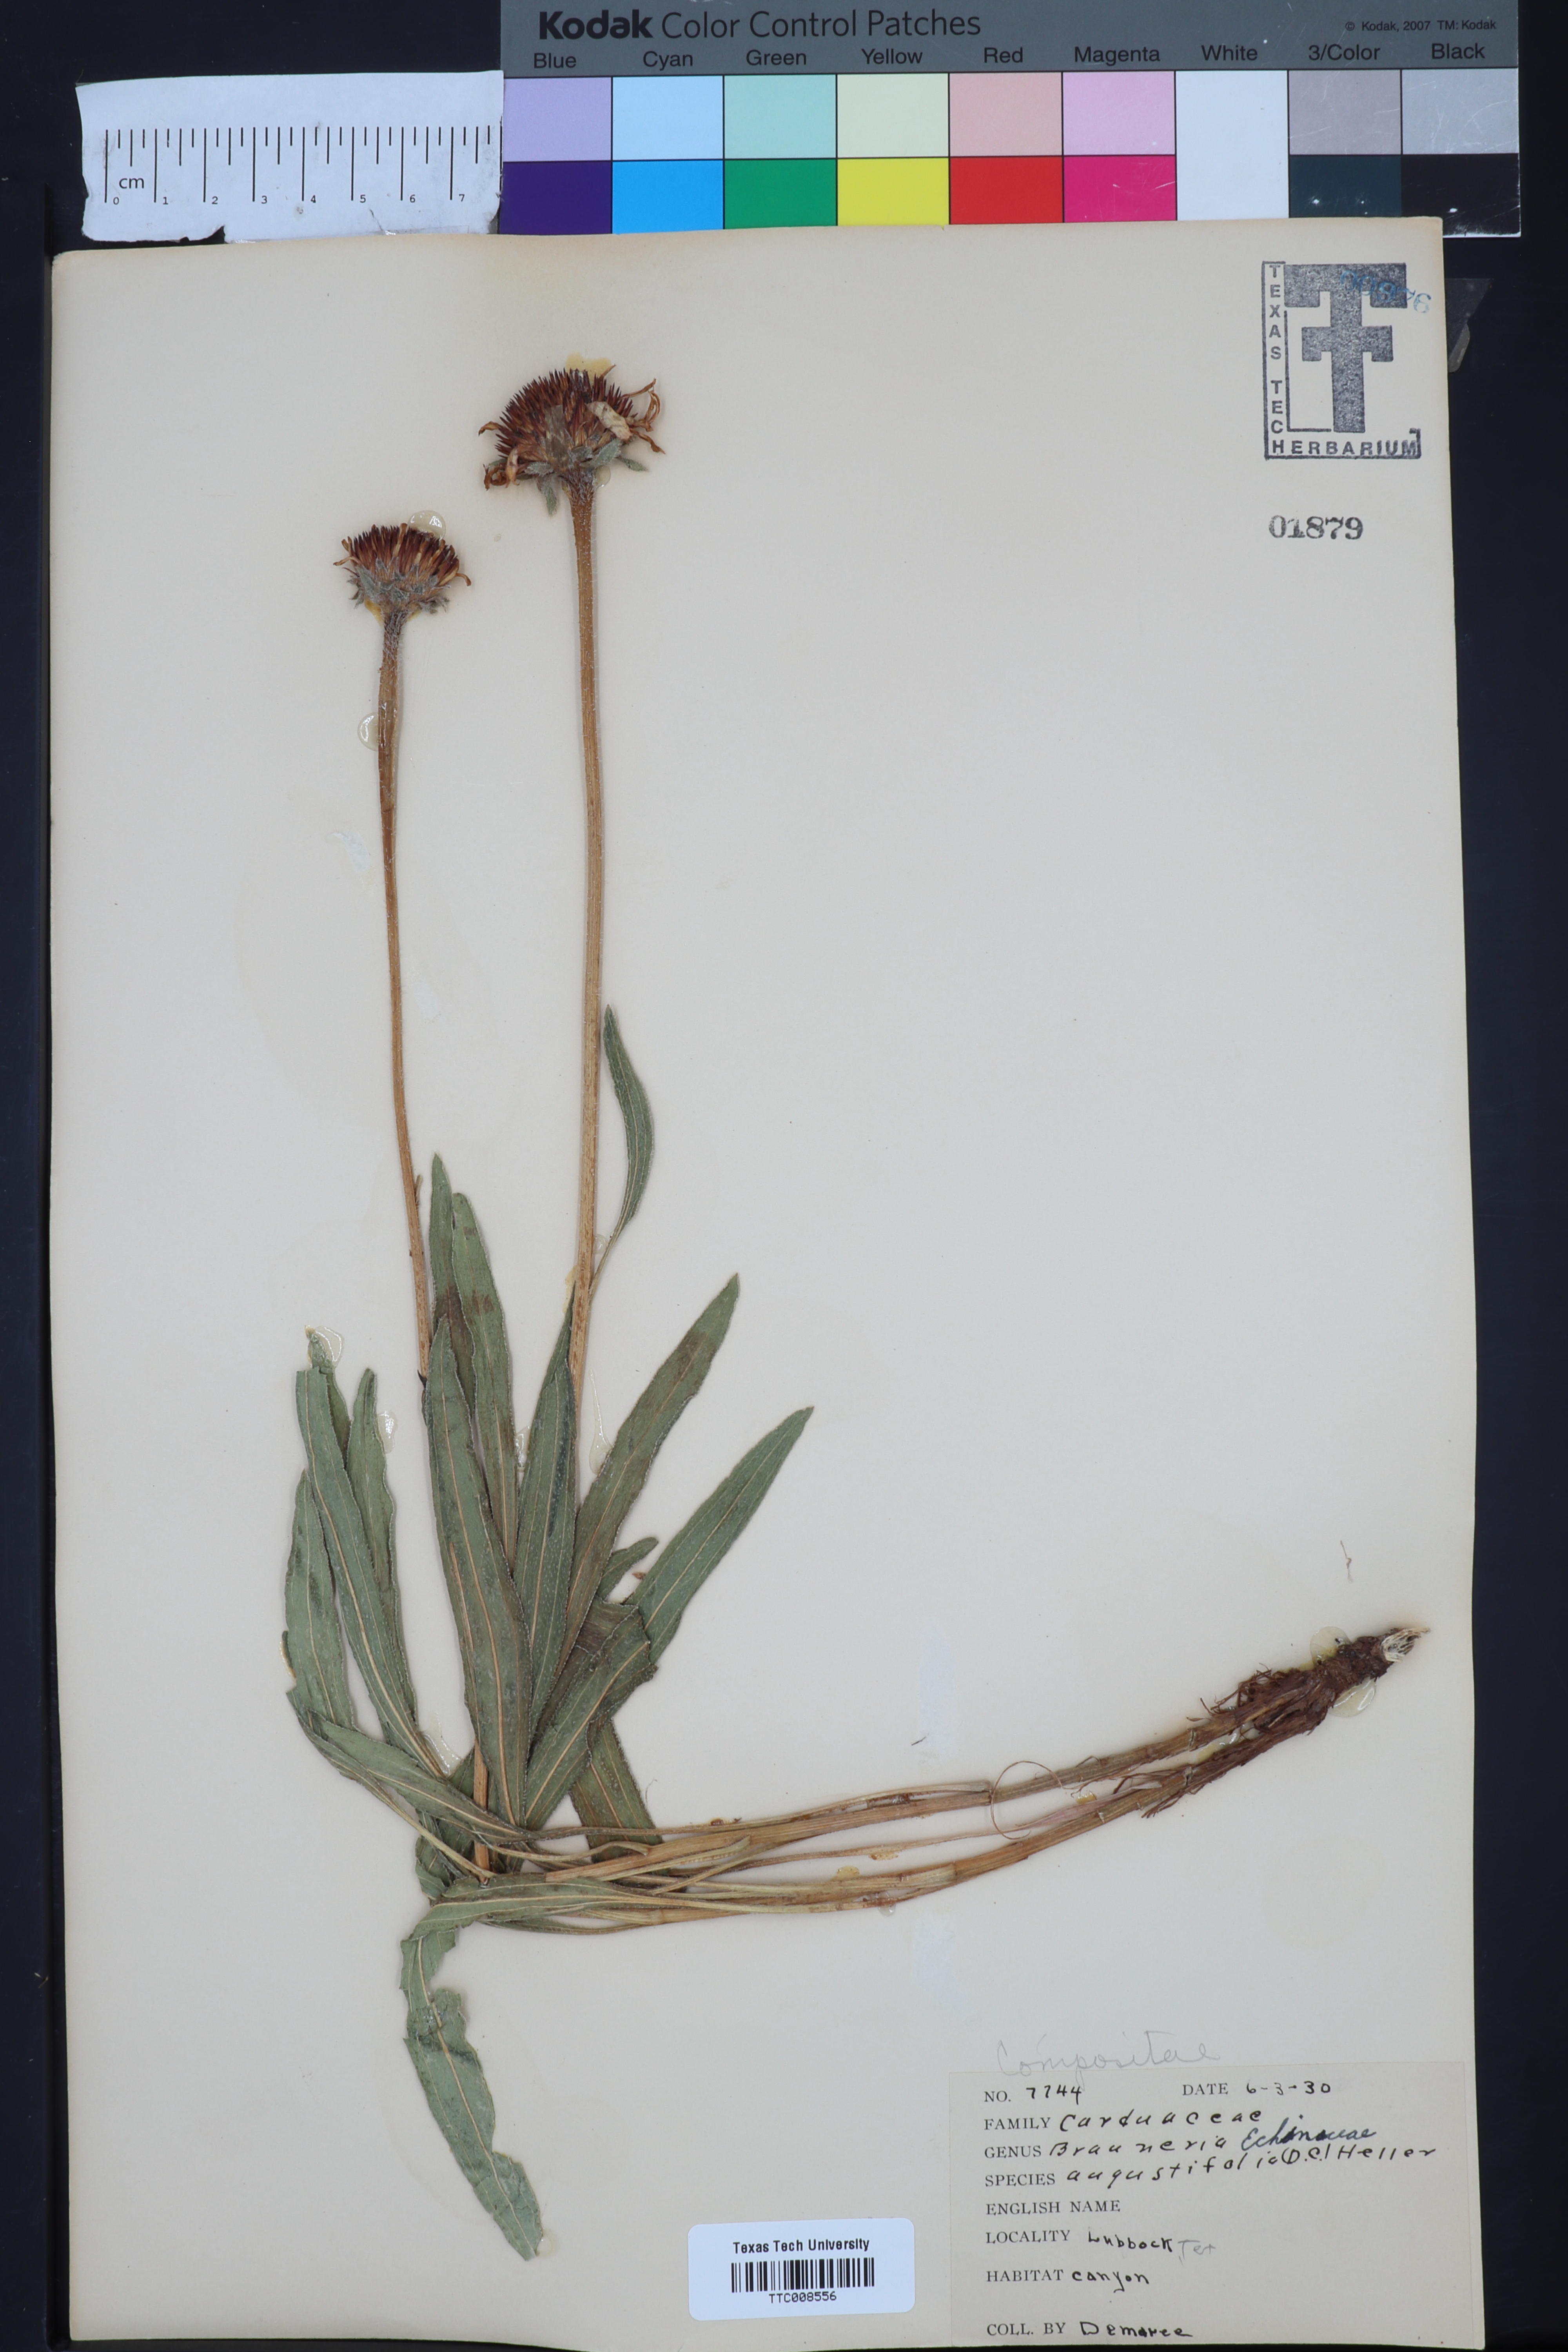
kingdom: Plantae
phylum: Tracheophyta
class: Magnoliopsida
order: Asterales
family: Asteraceae
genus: Echinacea
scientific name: Echinacea angustifolia
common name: Black-sampson echinacea
